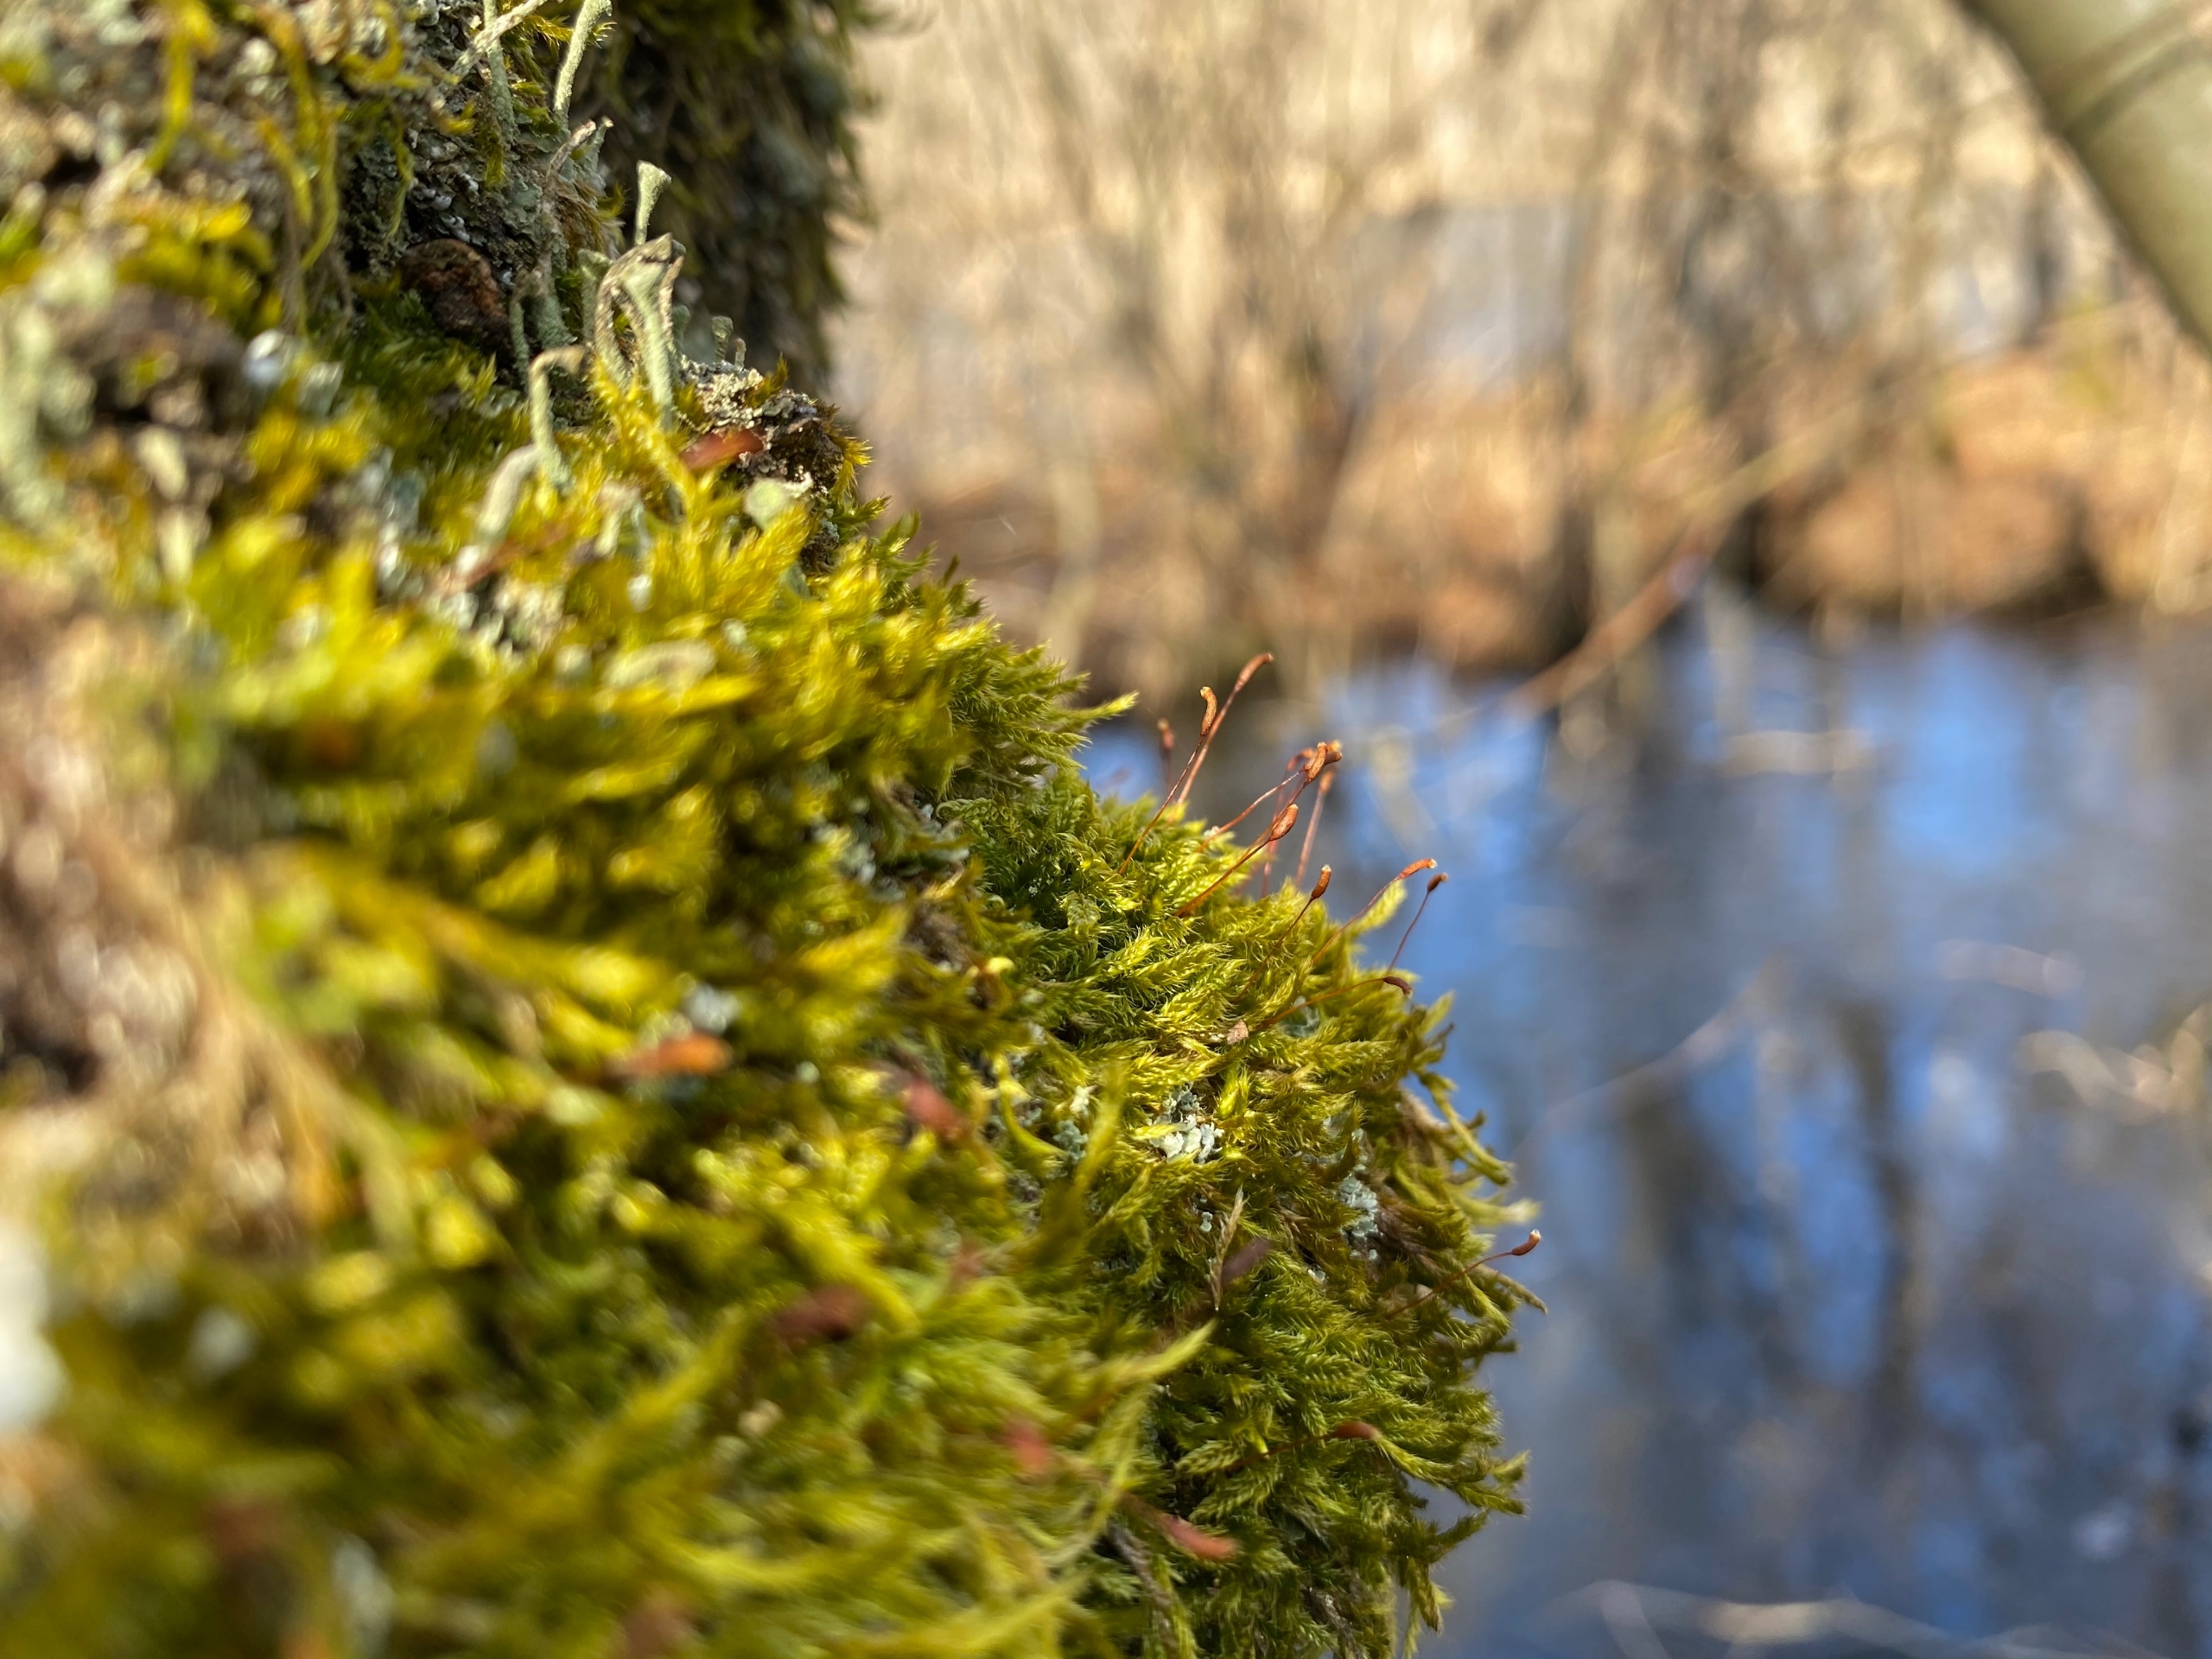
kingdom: Plantae
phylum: Bryophyta
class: Bryopsida
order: Hypnales
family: Hypnaceae
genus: Hypnum
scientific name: Hypnum cupressiforme
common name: Almindelig cypresmos
